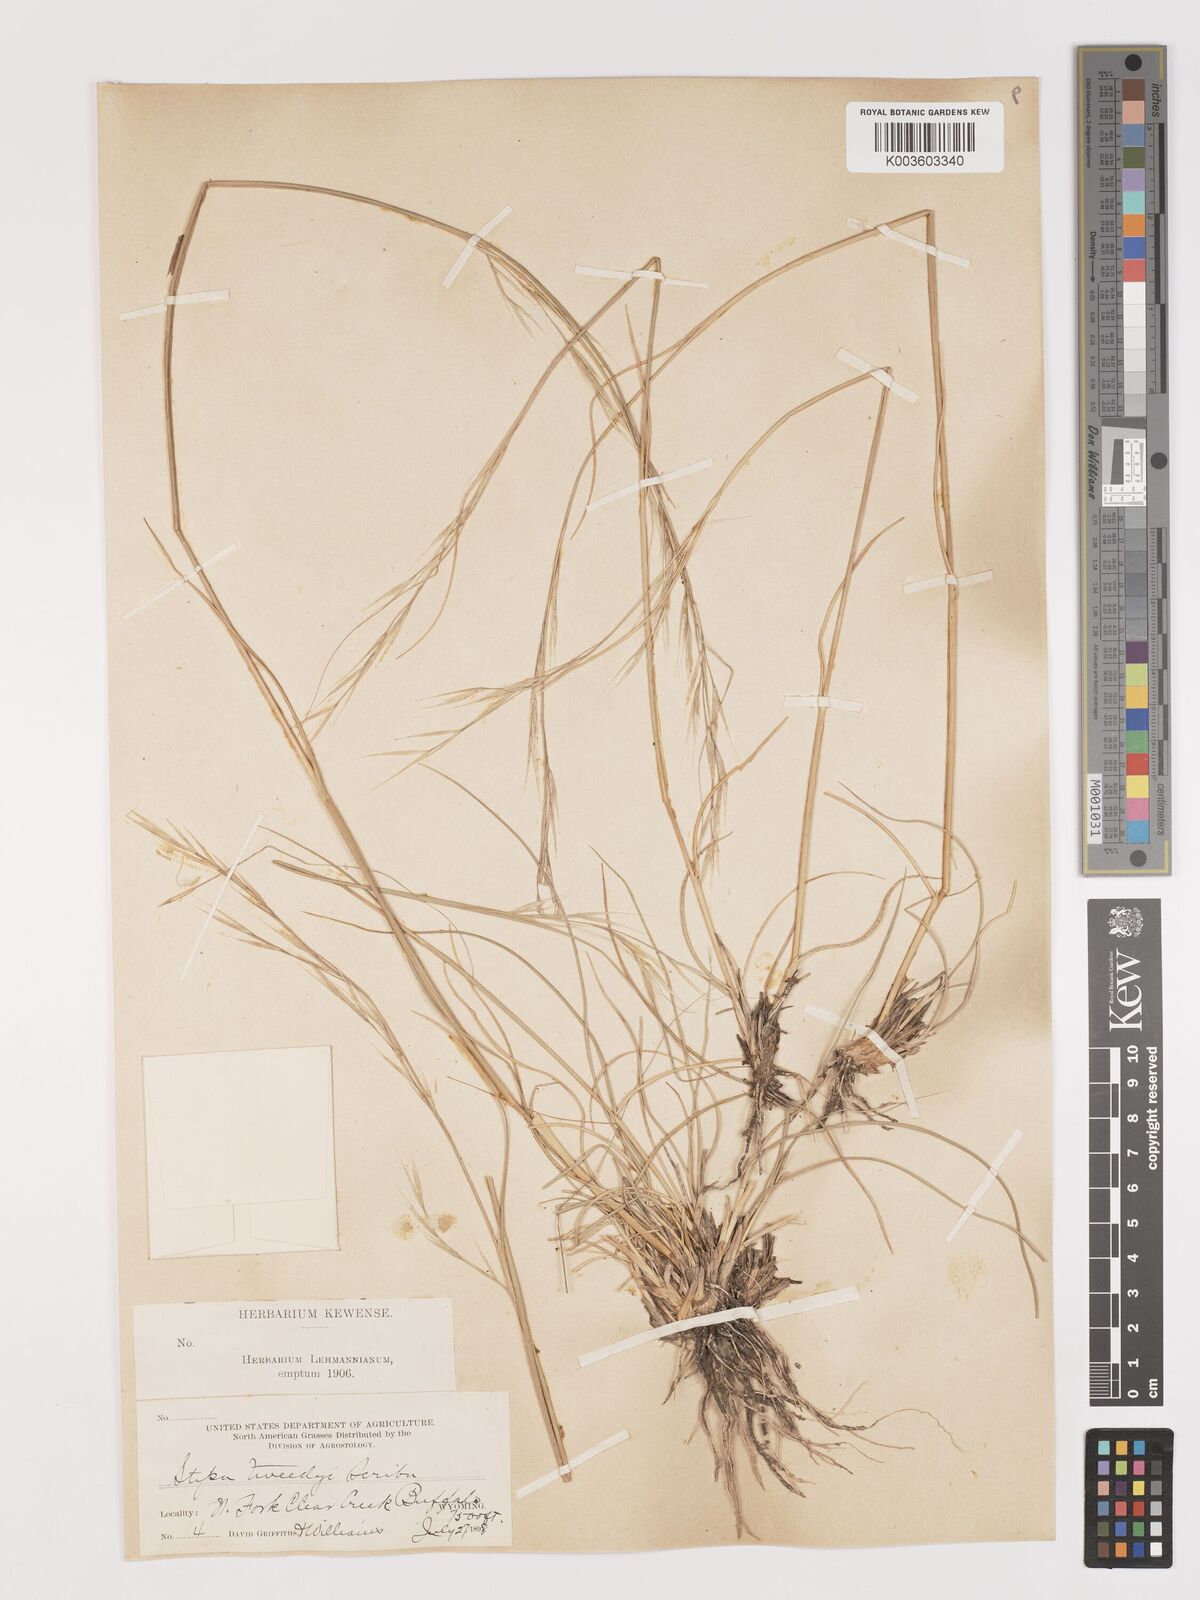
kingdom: Plantae
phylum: Tracheophyta
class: Liliopsida
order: Poales
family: Poaceae
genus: Hesperostipa
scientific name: Hesperostipa comata
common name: Needle-and-thread grass
